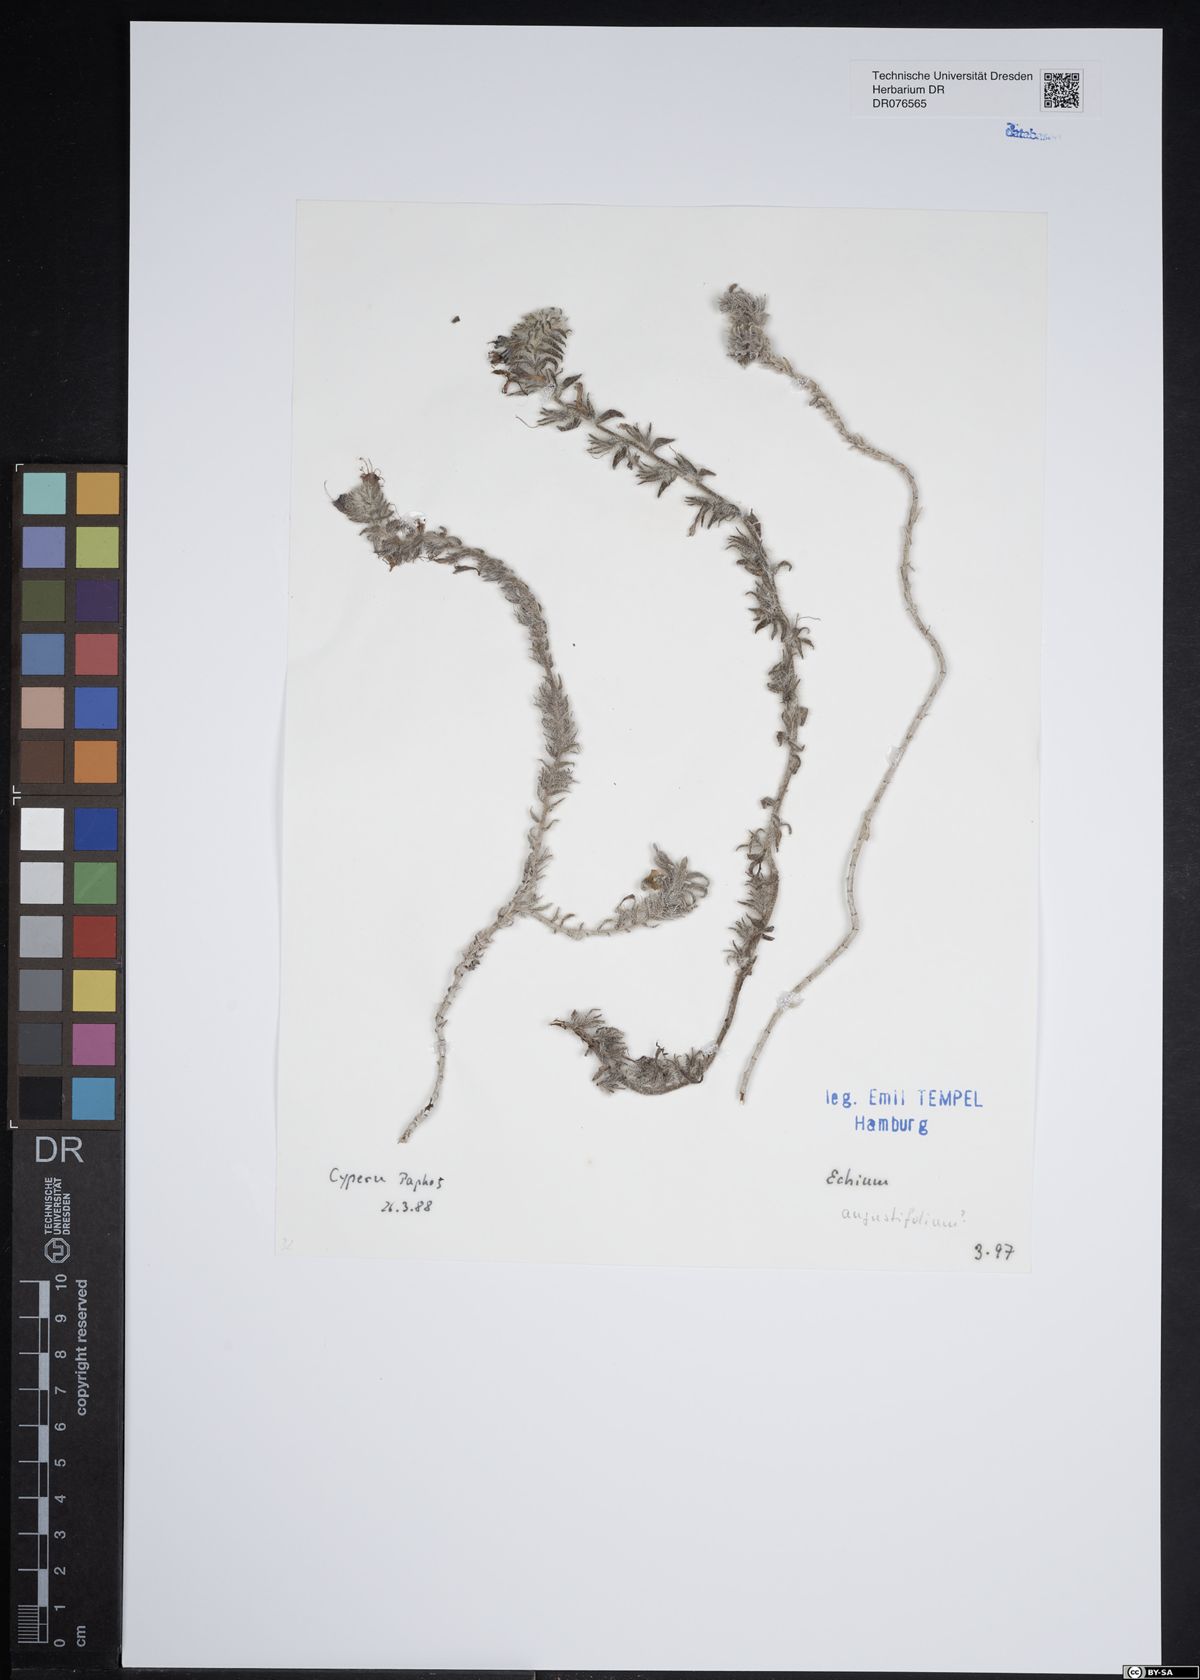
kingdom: Plantae
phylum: Tracheophyta
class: Magnoliopsida
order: Boraginales
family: Boraginaceae
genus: Echium
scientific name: Echium angustifolium
